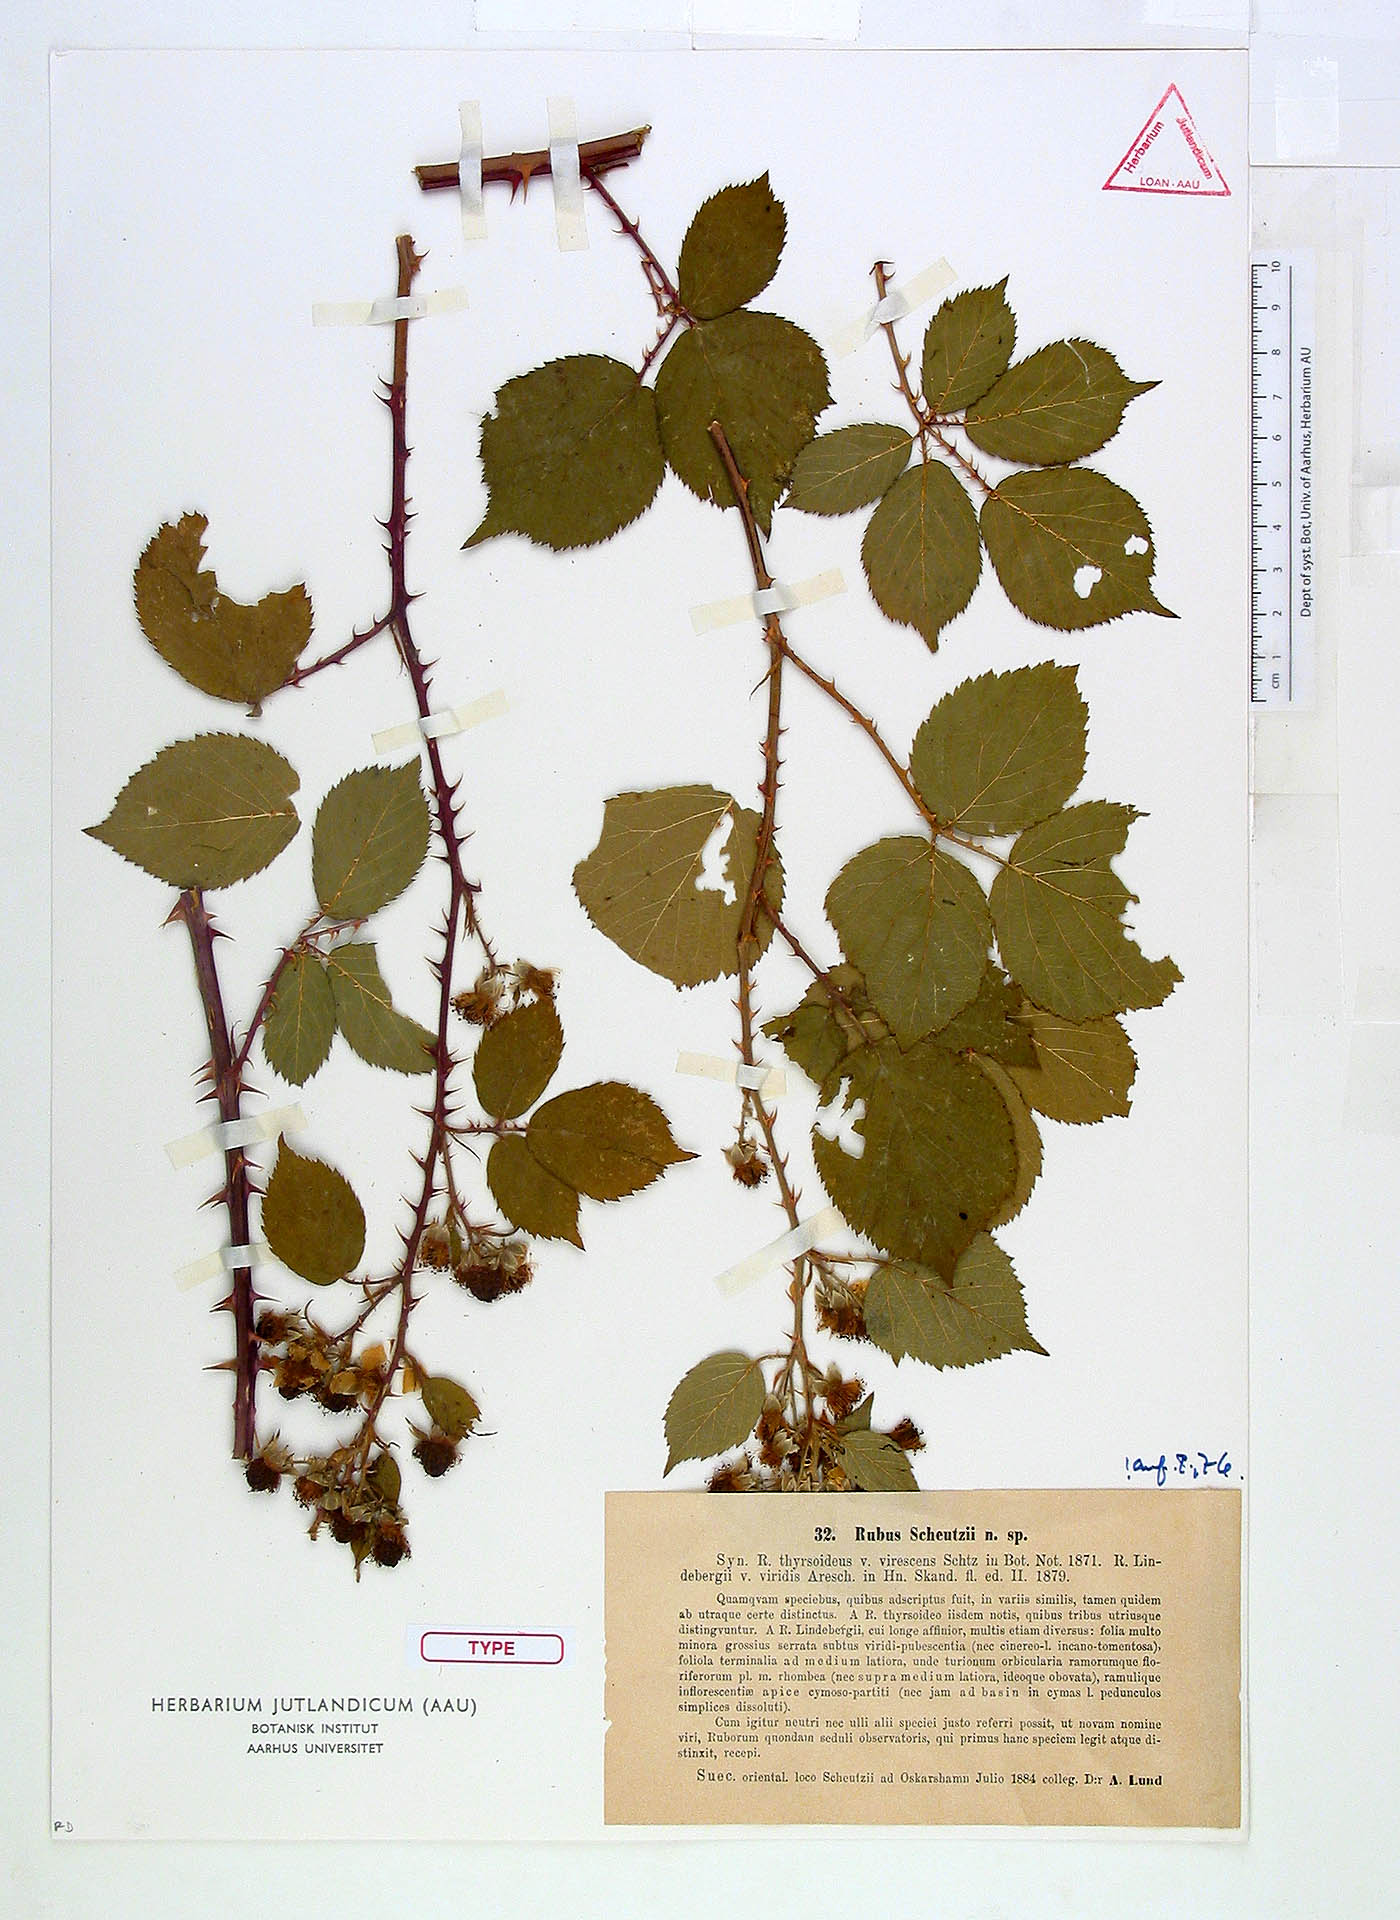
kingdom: Plantae
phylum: Tracheophyta
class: Magnoliopsida
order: Rosales
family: Rosaceae
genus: Rubus
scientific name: Rubus muenteri
